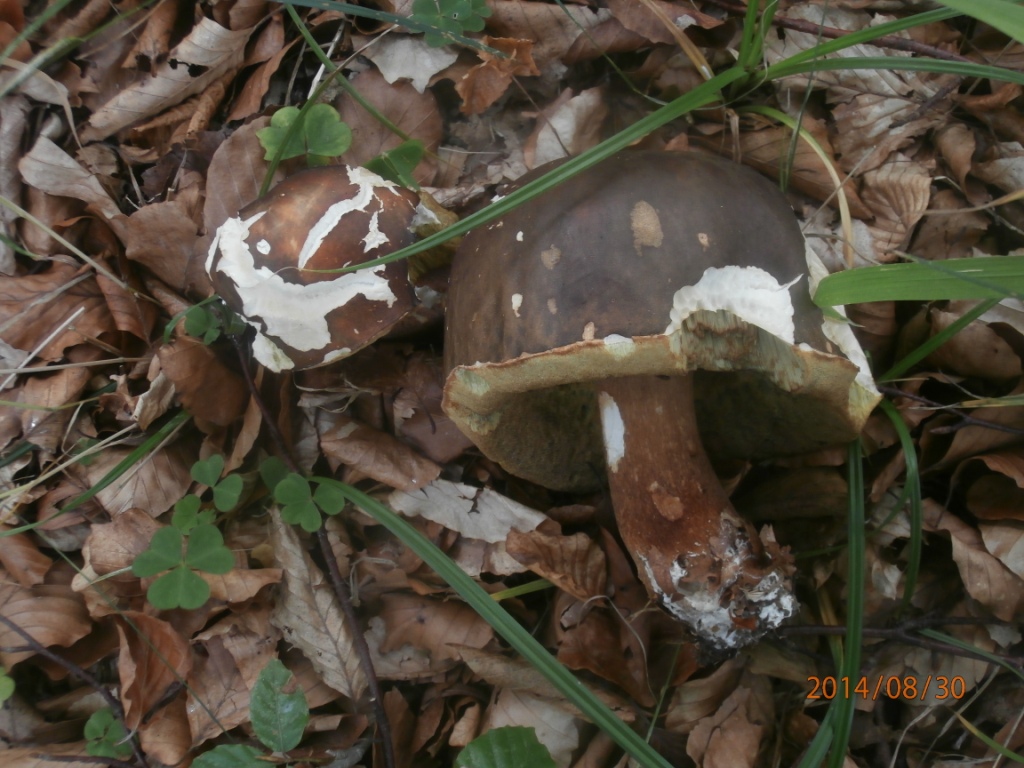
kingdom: Fungi
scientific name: Fungi
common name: bronze-rørhat
